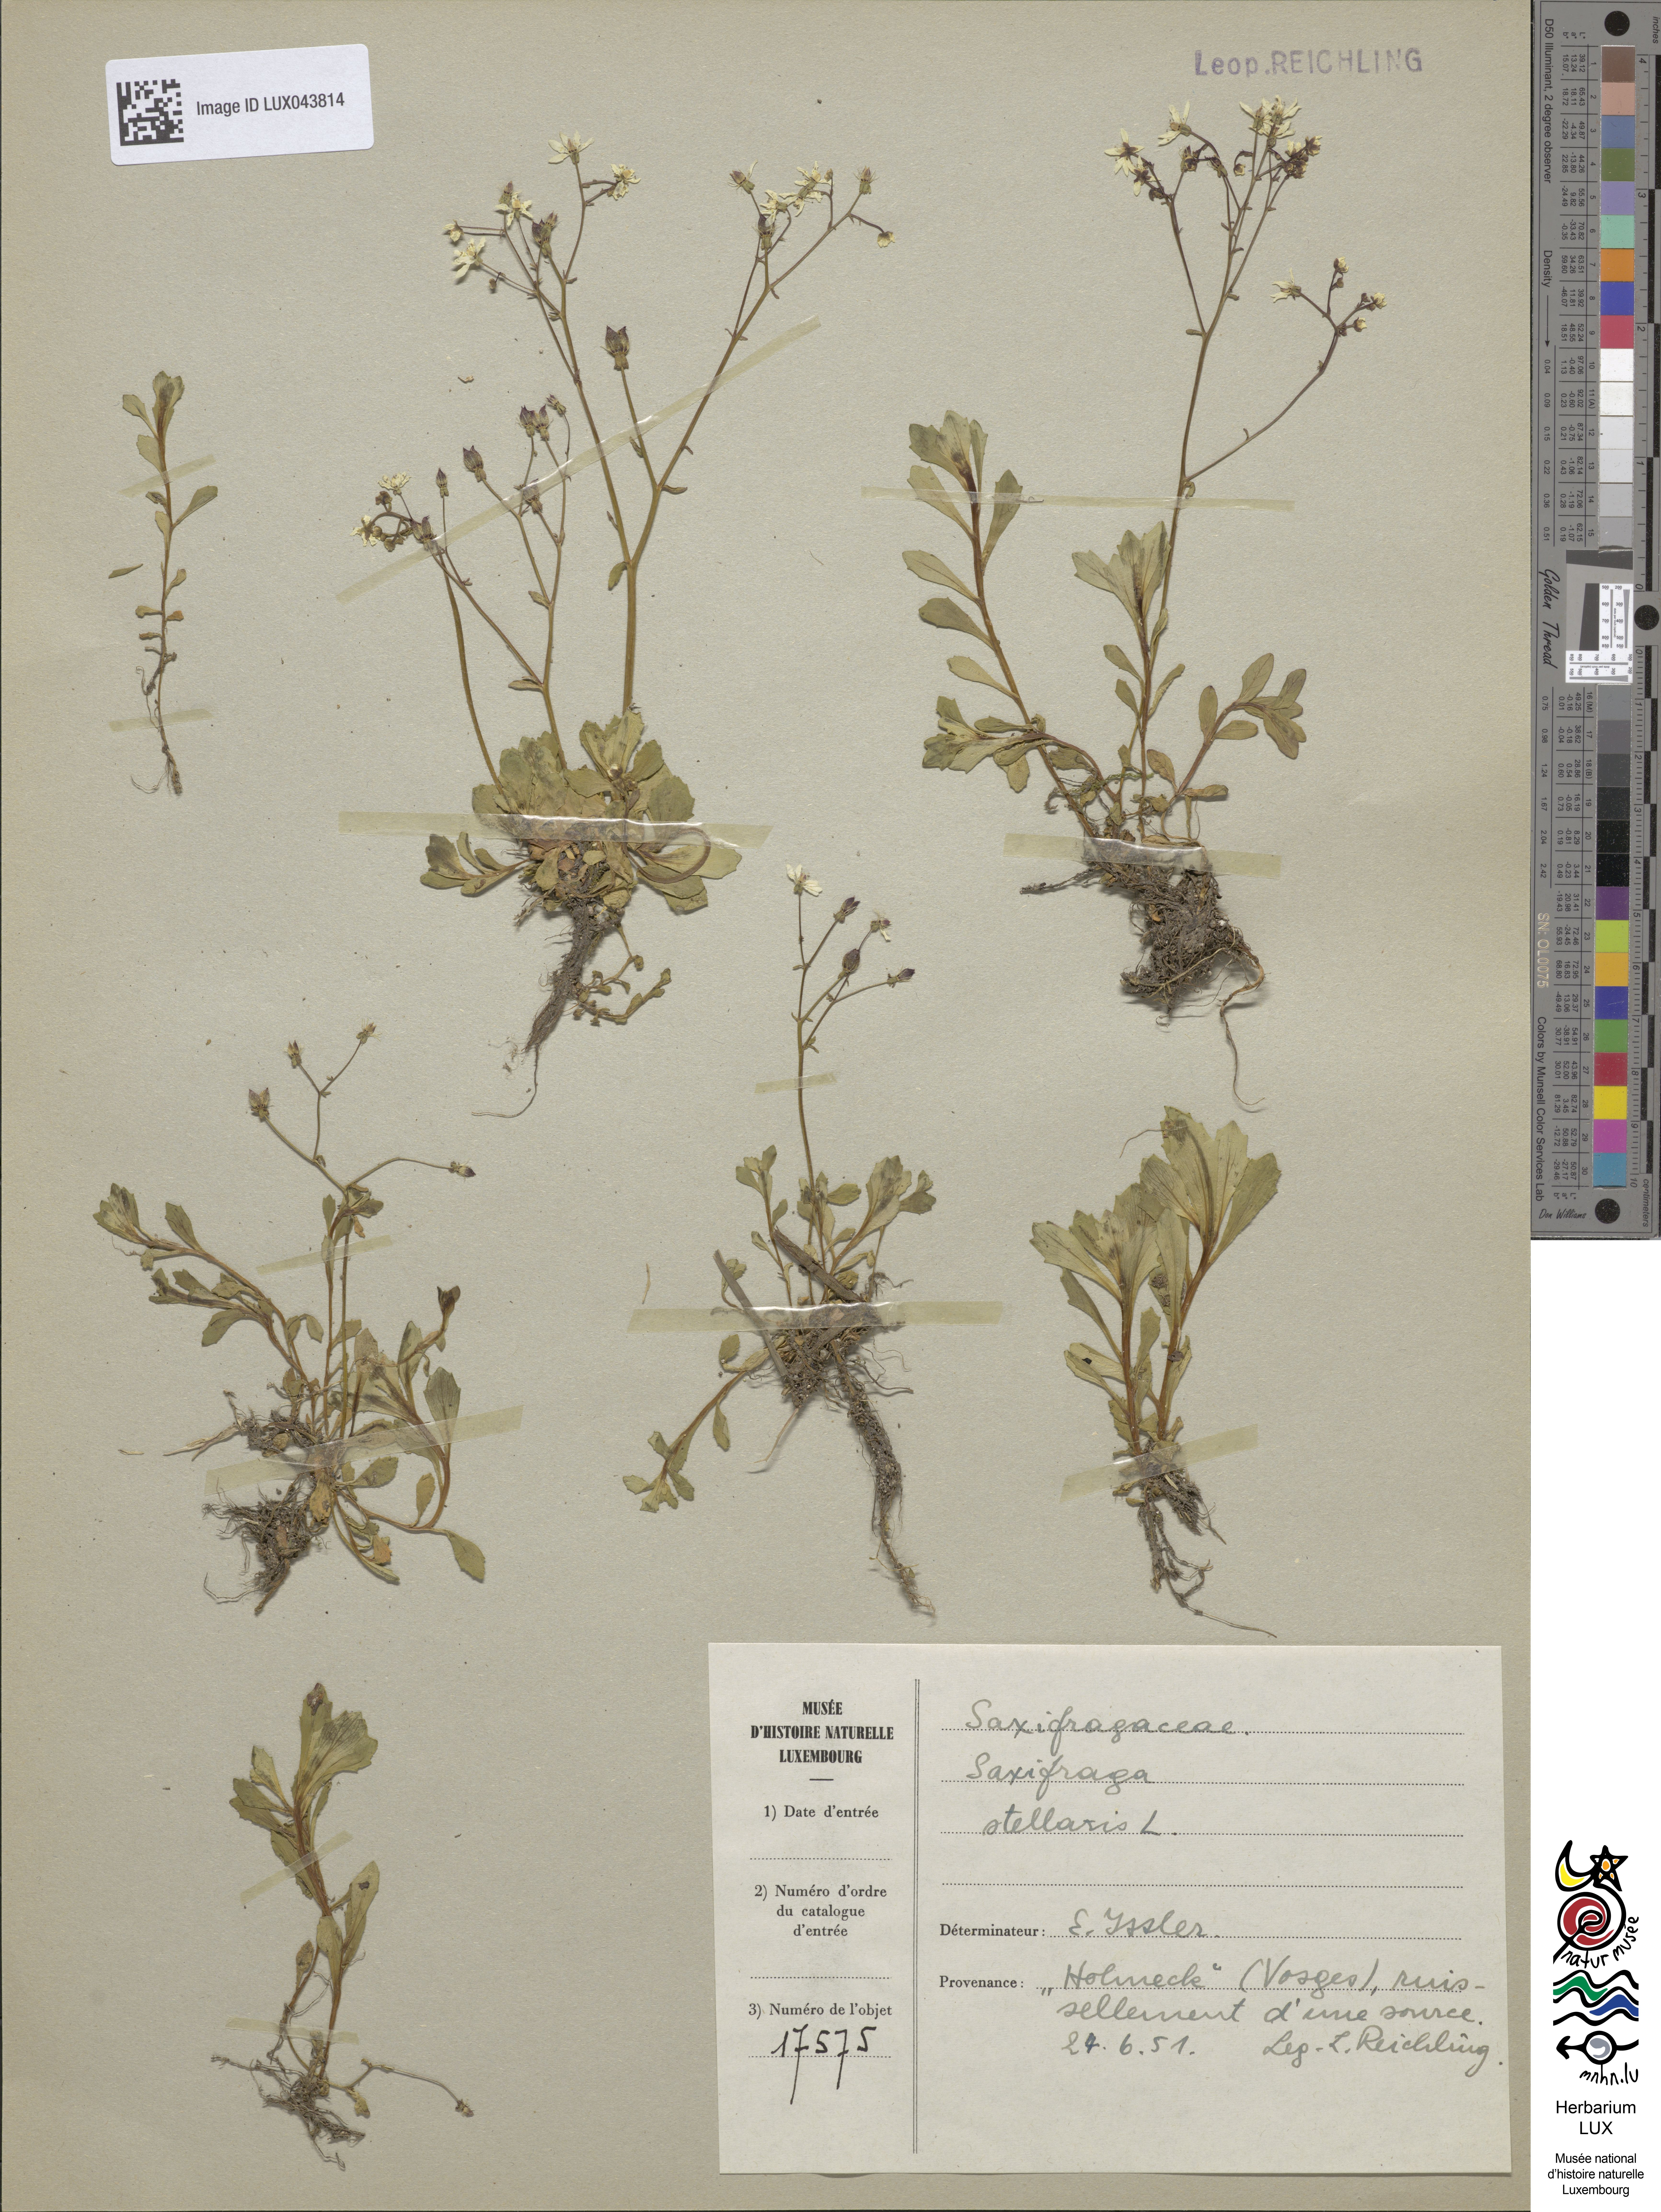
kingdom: Plantae
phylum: Tracheophyta
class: Magnoliopsida
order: Saxifragales
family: Saxifragaceae
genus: Micranthes
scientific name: Micranthes stellaris
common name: Starry saxifrage
